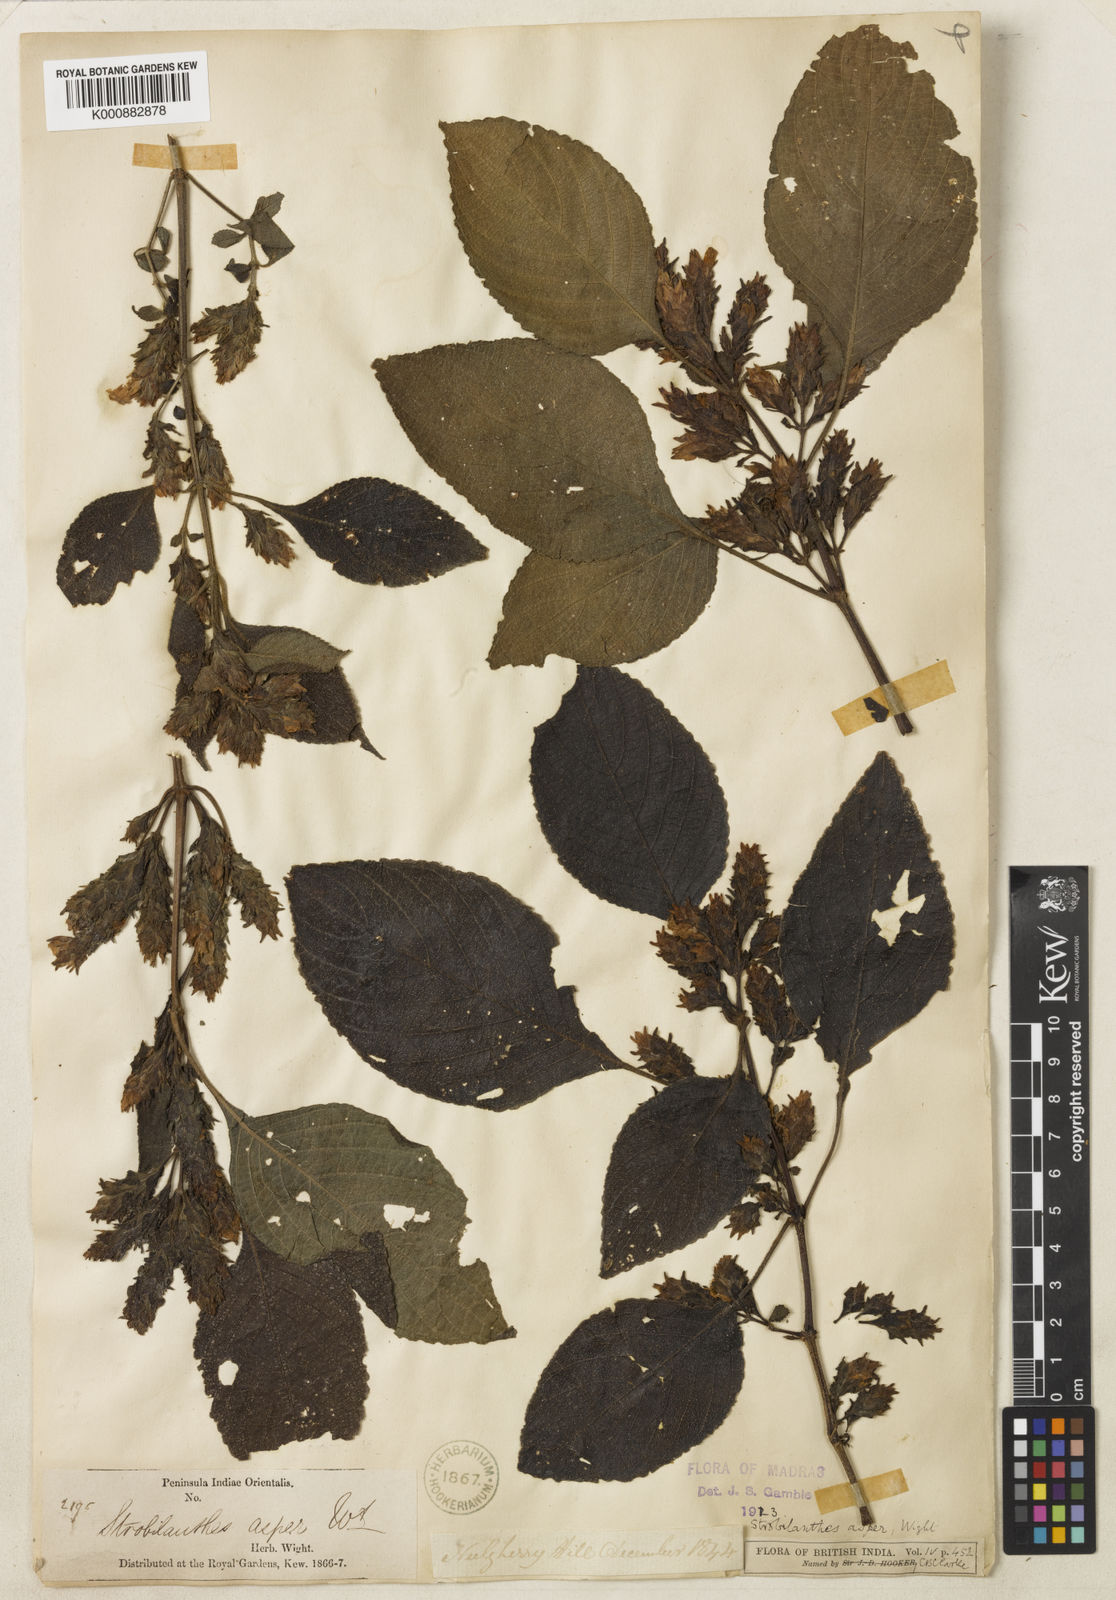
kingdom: Plantae
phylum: Tracheophyta
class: Magnoliopsida
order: Lamiales
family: Acanthaceae
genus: Strobilanthes
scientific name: Strobilanthes ciliata
